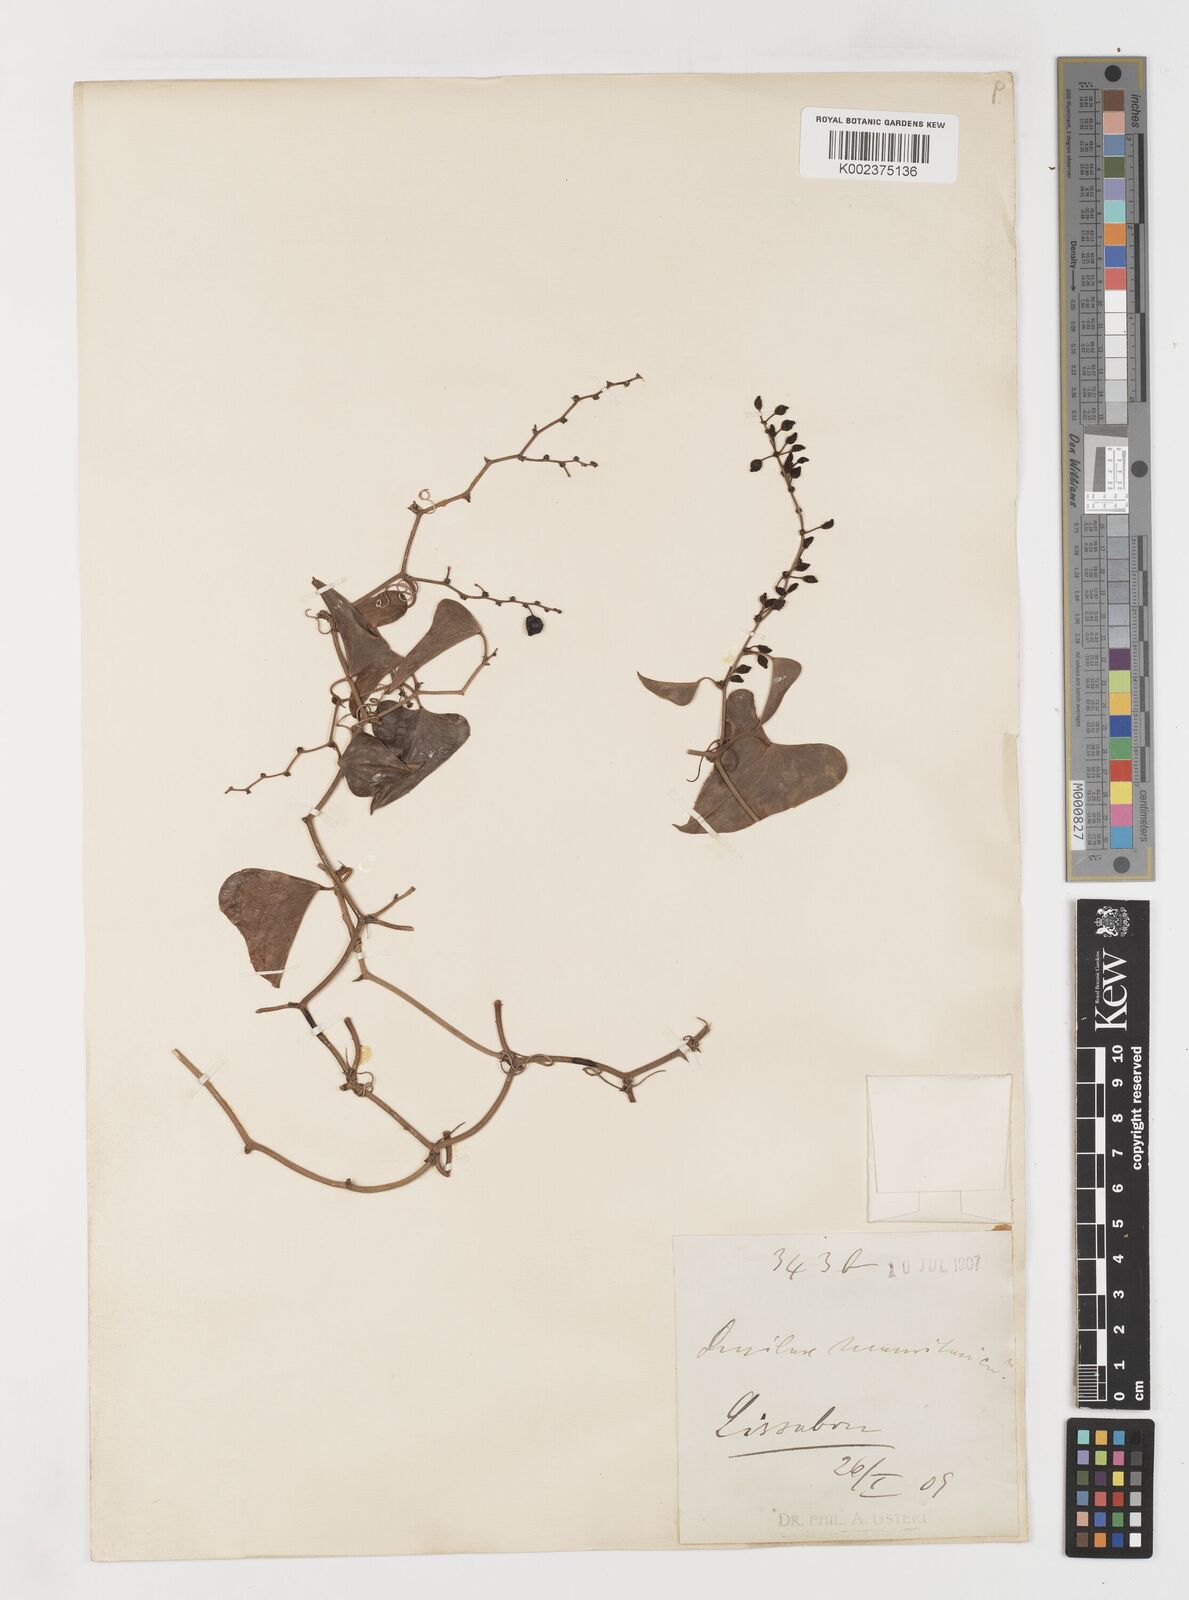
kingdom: Plantae
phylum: Tracheophyta
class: Liliopsida
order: Liliales
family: Smilacaceae
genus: Smilax
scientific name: Smilax aspera
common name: Common smilax
